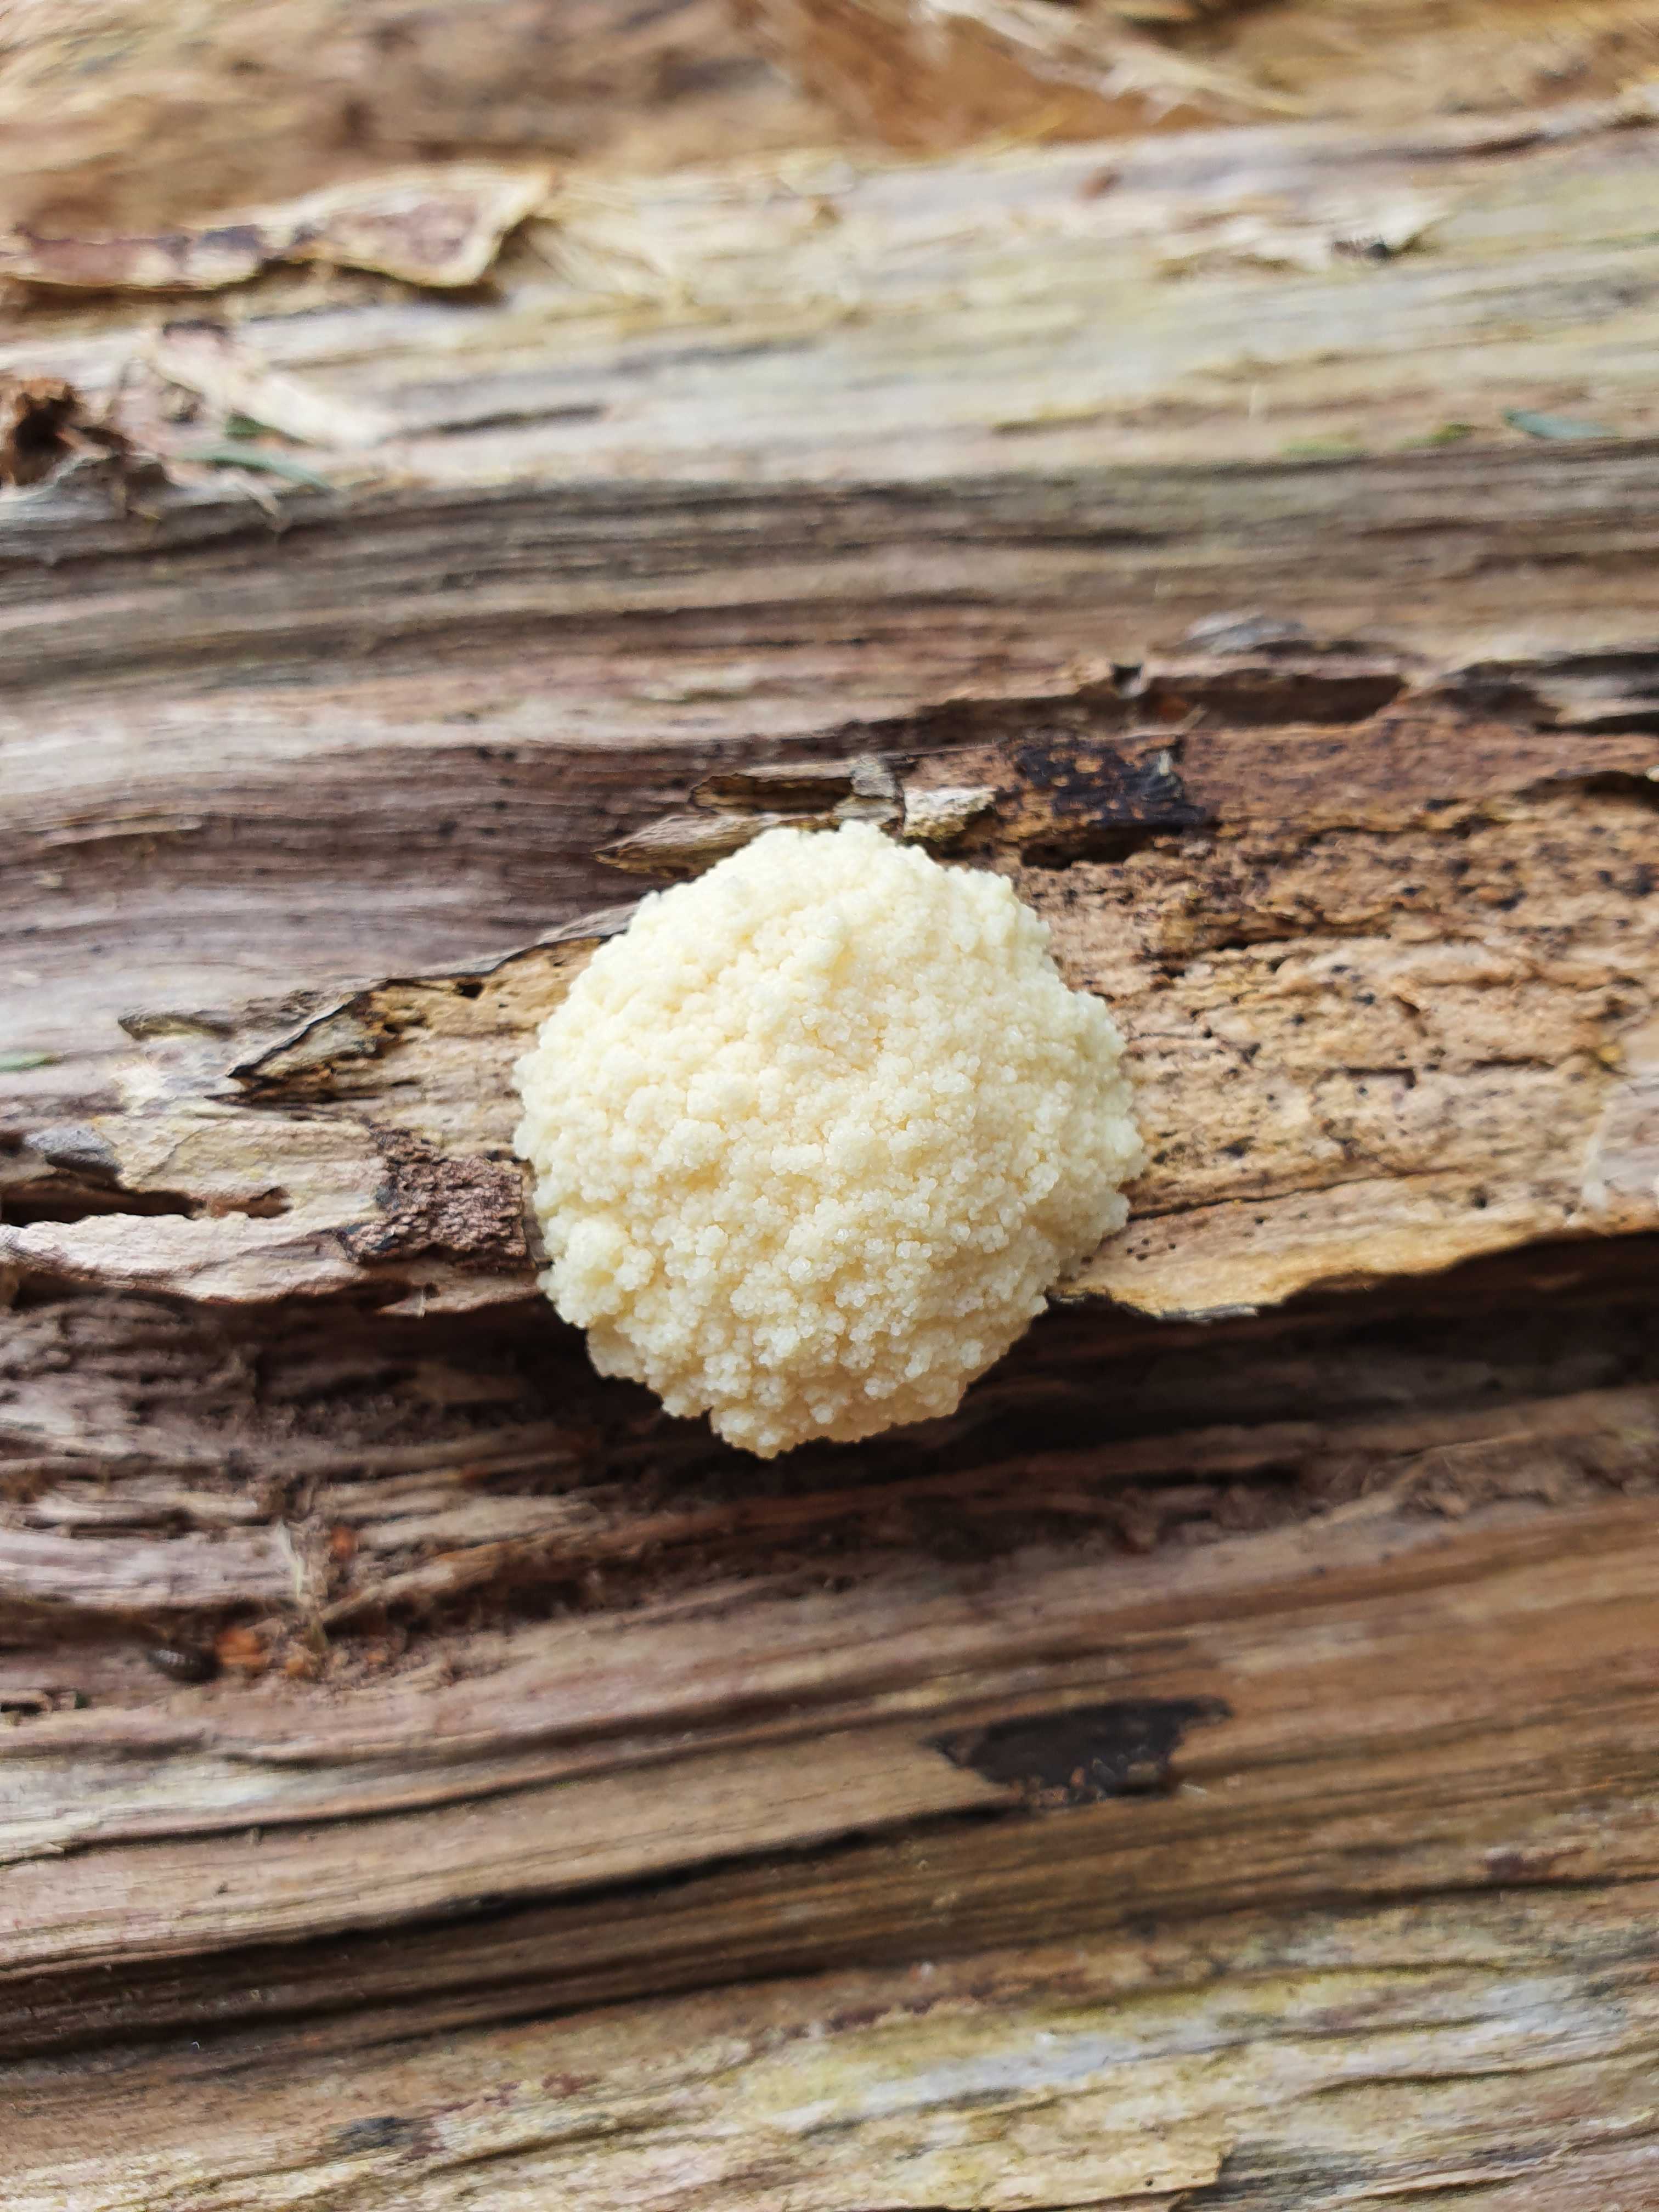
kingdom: Protozoa
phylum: Mycetozoa
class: Myxomycetes
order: Cribrariales
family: Tubiferaceae
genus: Reticularia
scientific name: Reticularia
